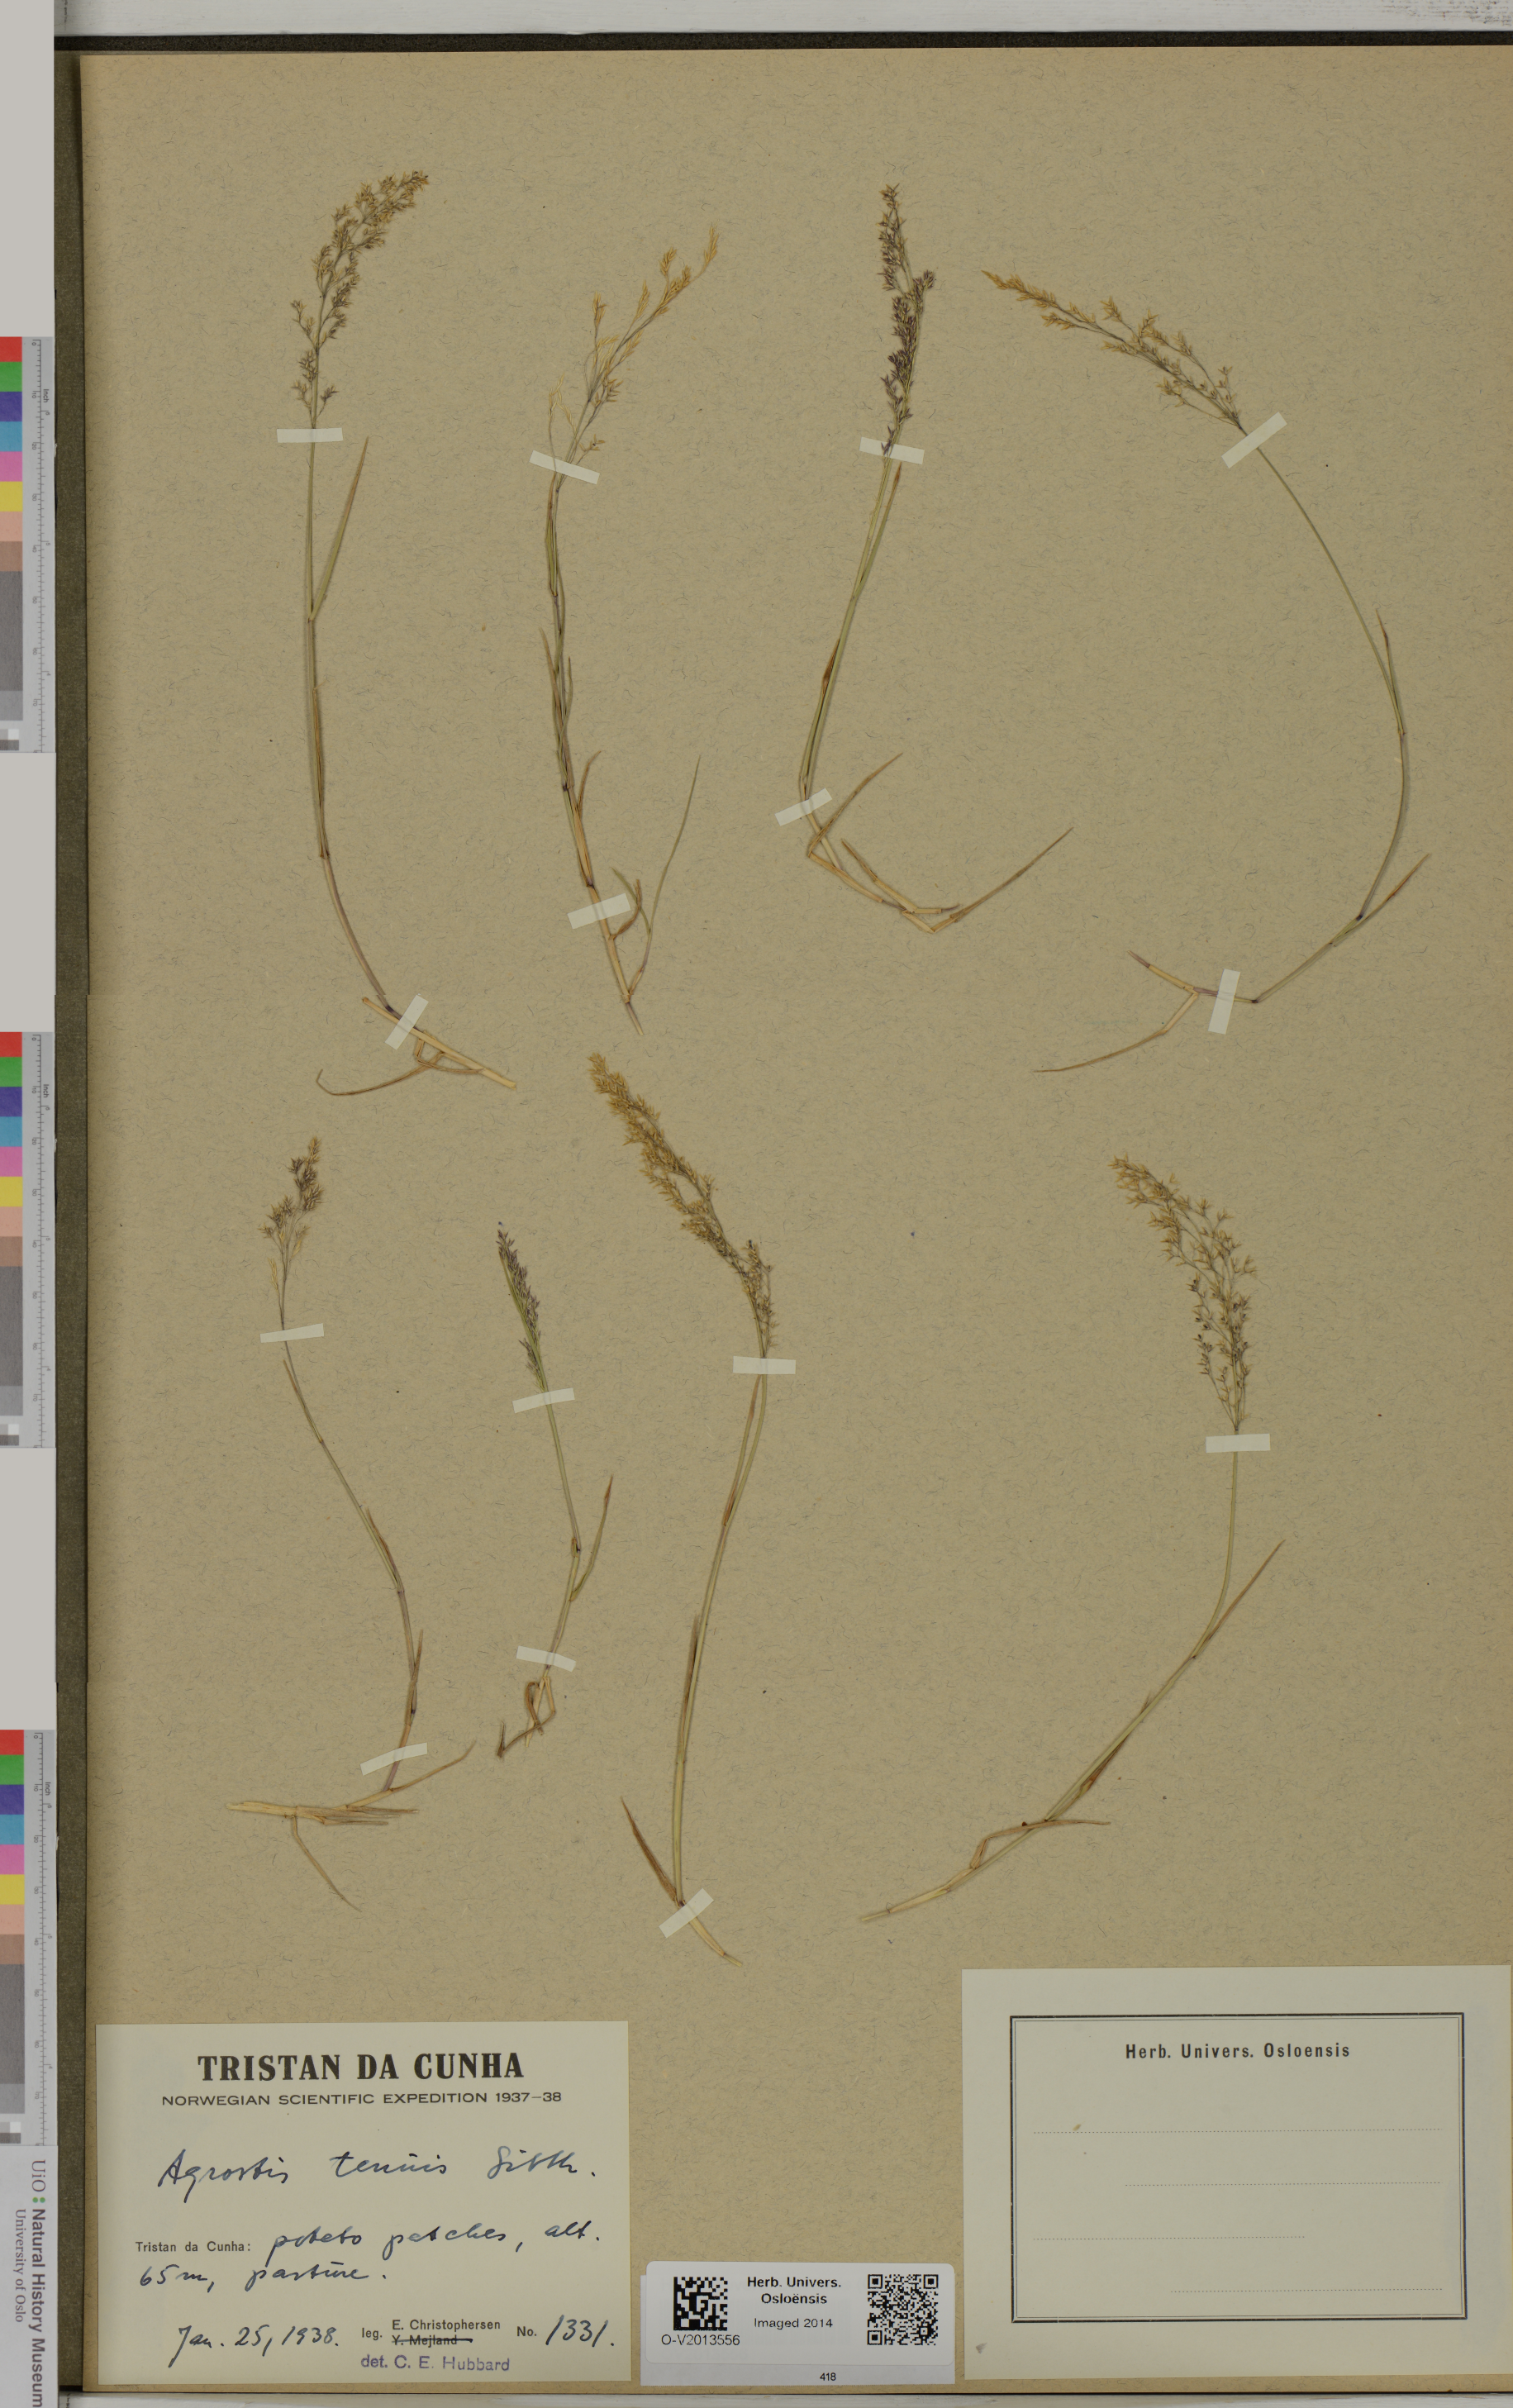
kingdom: Plantae
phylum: Tracheophyta
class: Liliopsida
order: Poales
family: Poaceae
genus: Agrostis
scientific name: Agrostis capillaris
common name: Colonial bentgrass
